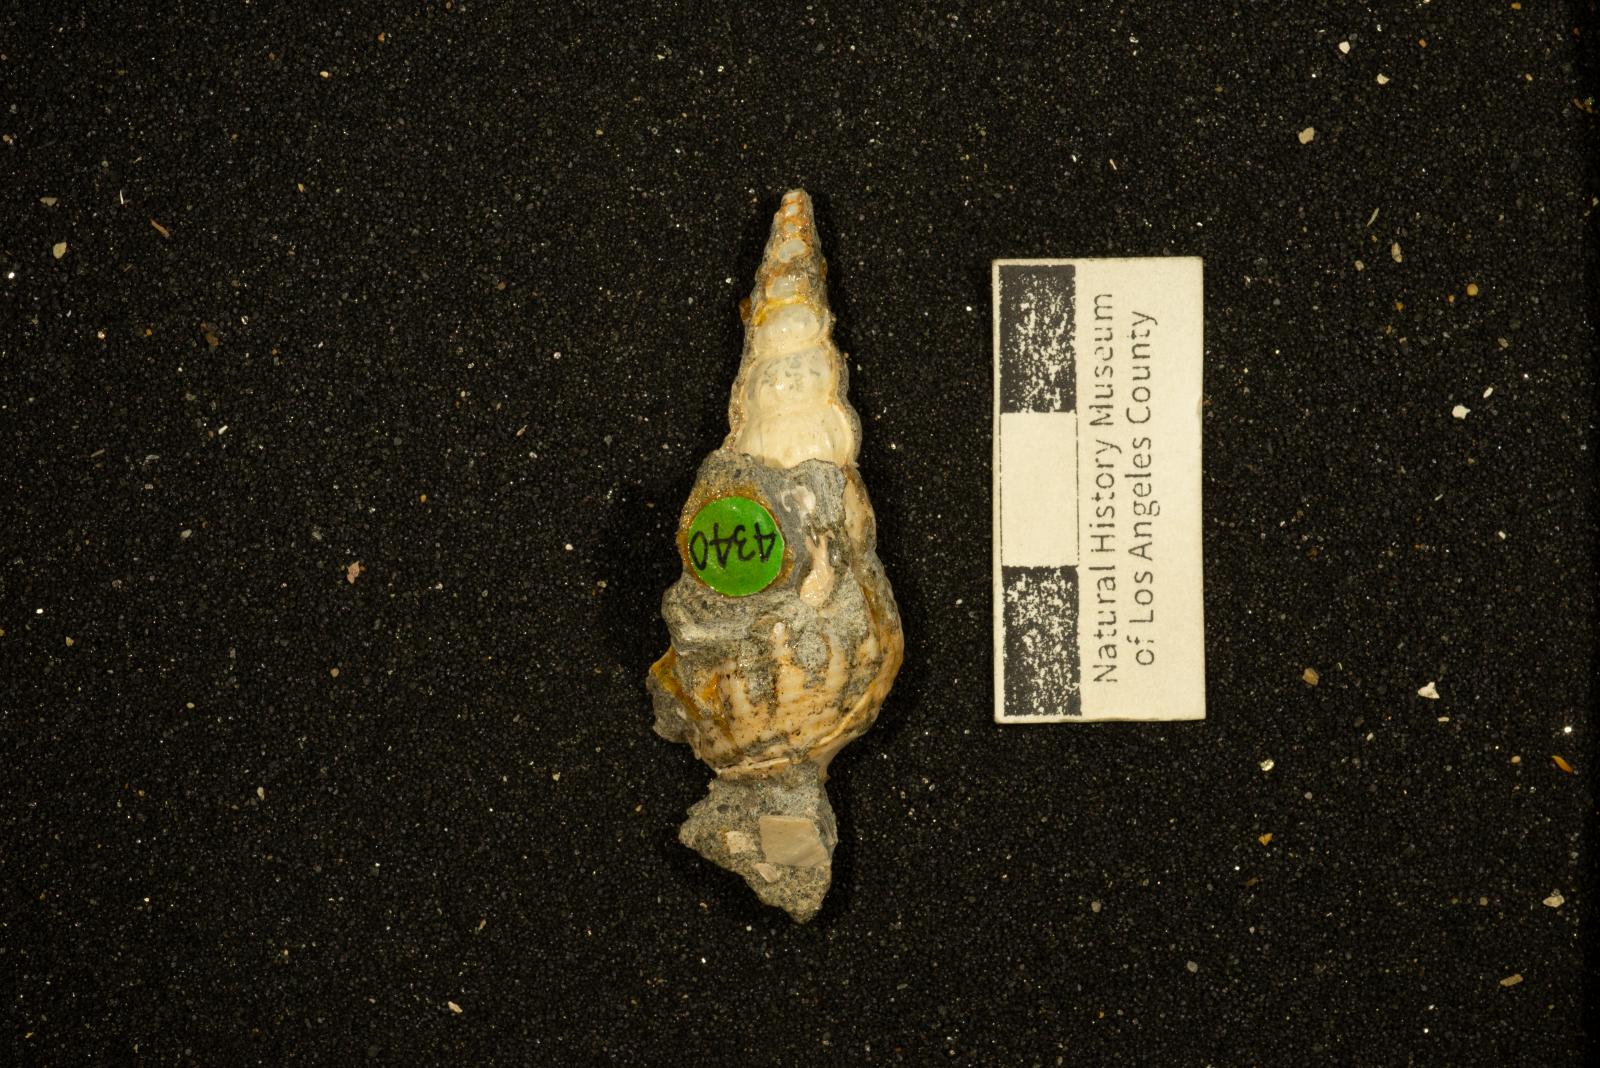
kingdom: Animalia
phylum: Mollusca
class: Gastropoda
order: Littorinimorpha
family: Aporrhaidae
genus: Anchura
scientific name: Anchura falciformis
